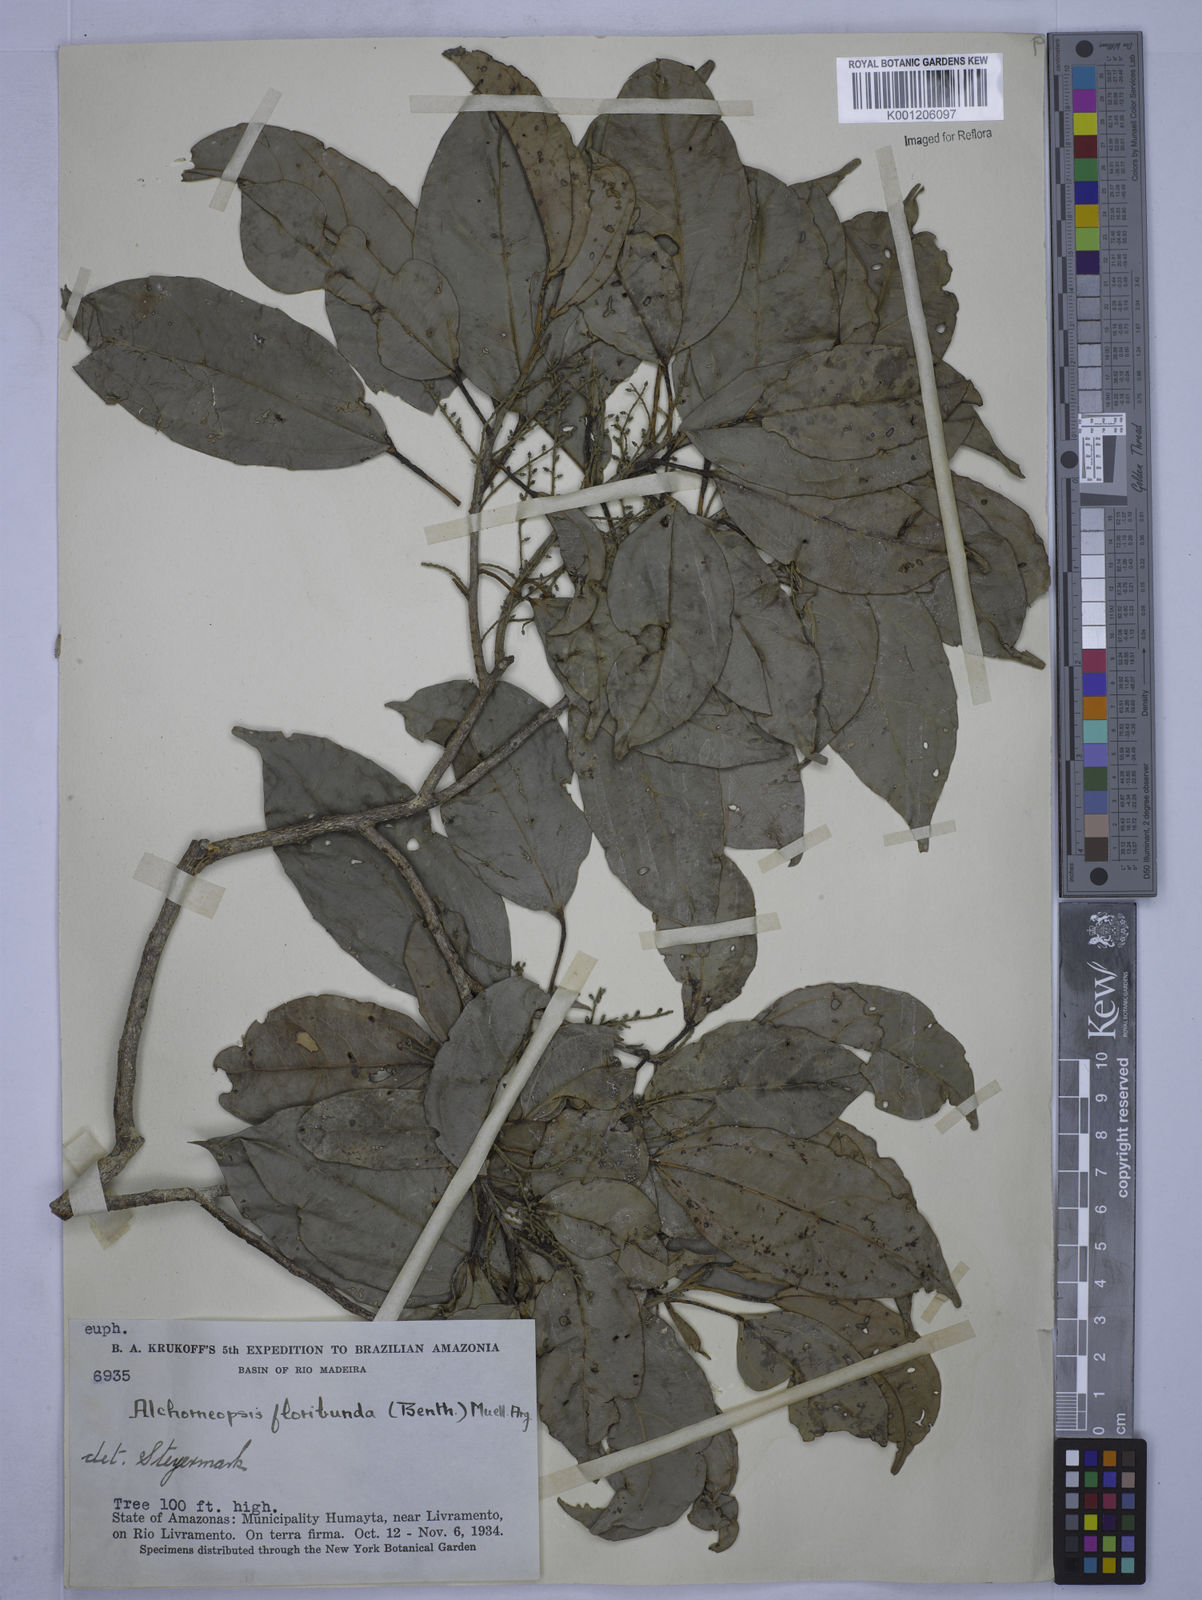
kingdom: Plantae
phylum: Tracheophyta
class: Magnoliopsida
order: Malpighiales
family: Euphorbiaceae
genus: Alchorneopsis
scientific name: Alchorneopsis
